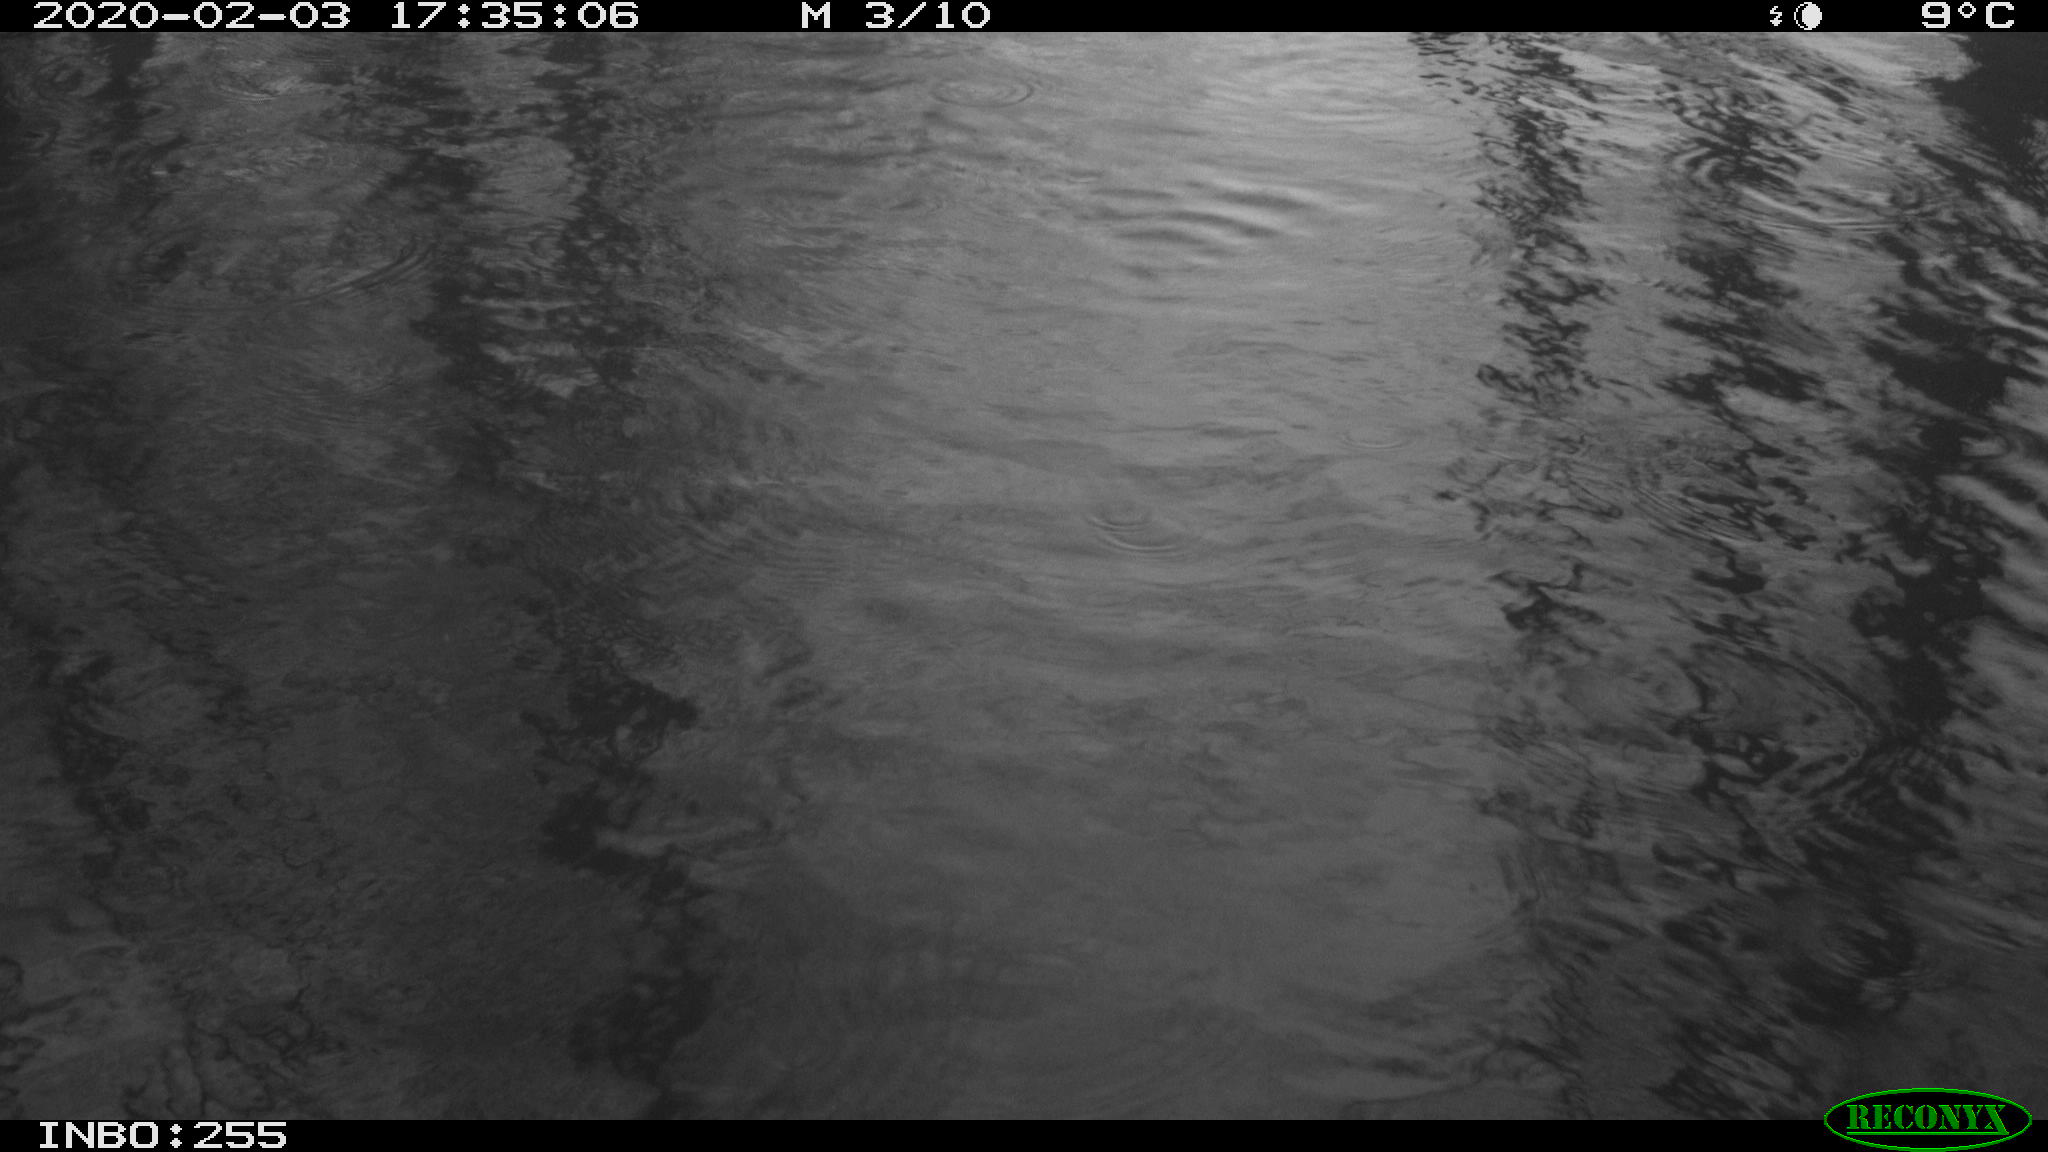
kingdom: Animalia
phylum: Chordata
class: Aves
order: Gruiformes
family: Rallidae
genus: Fulica
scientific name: Fulica atra
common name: Eurasian coot
